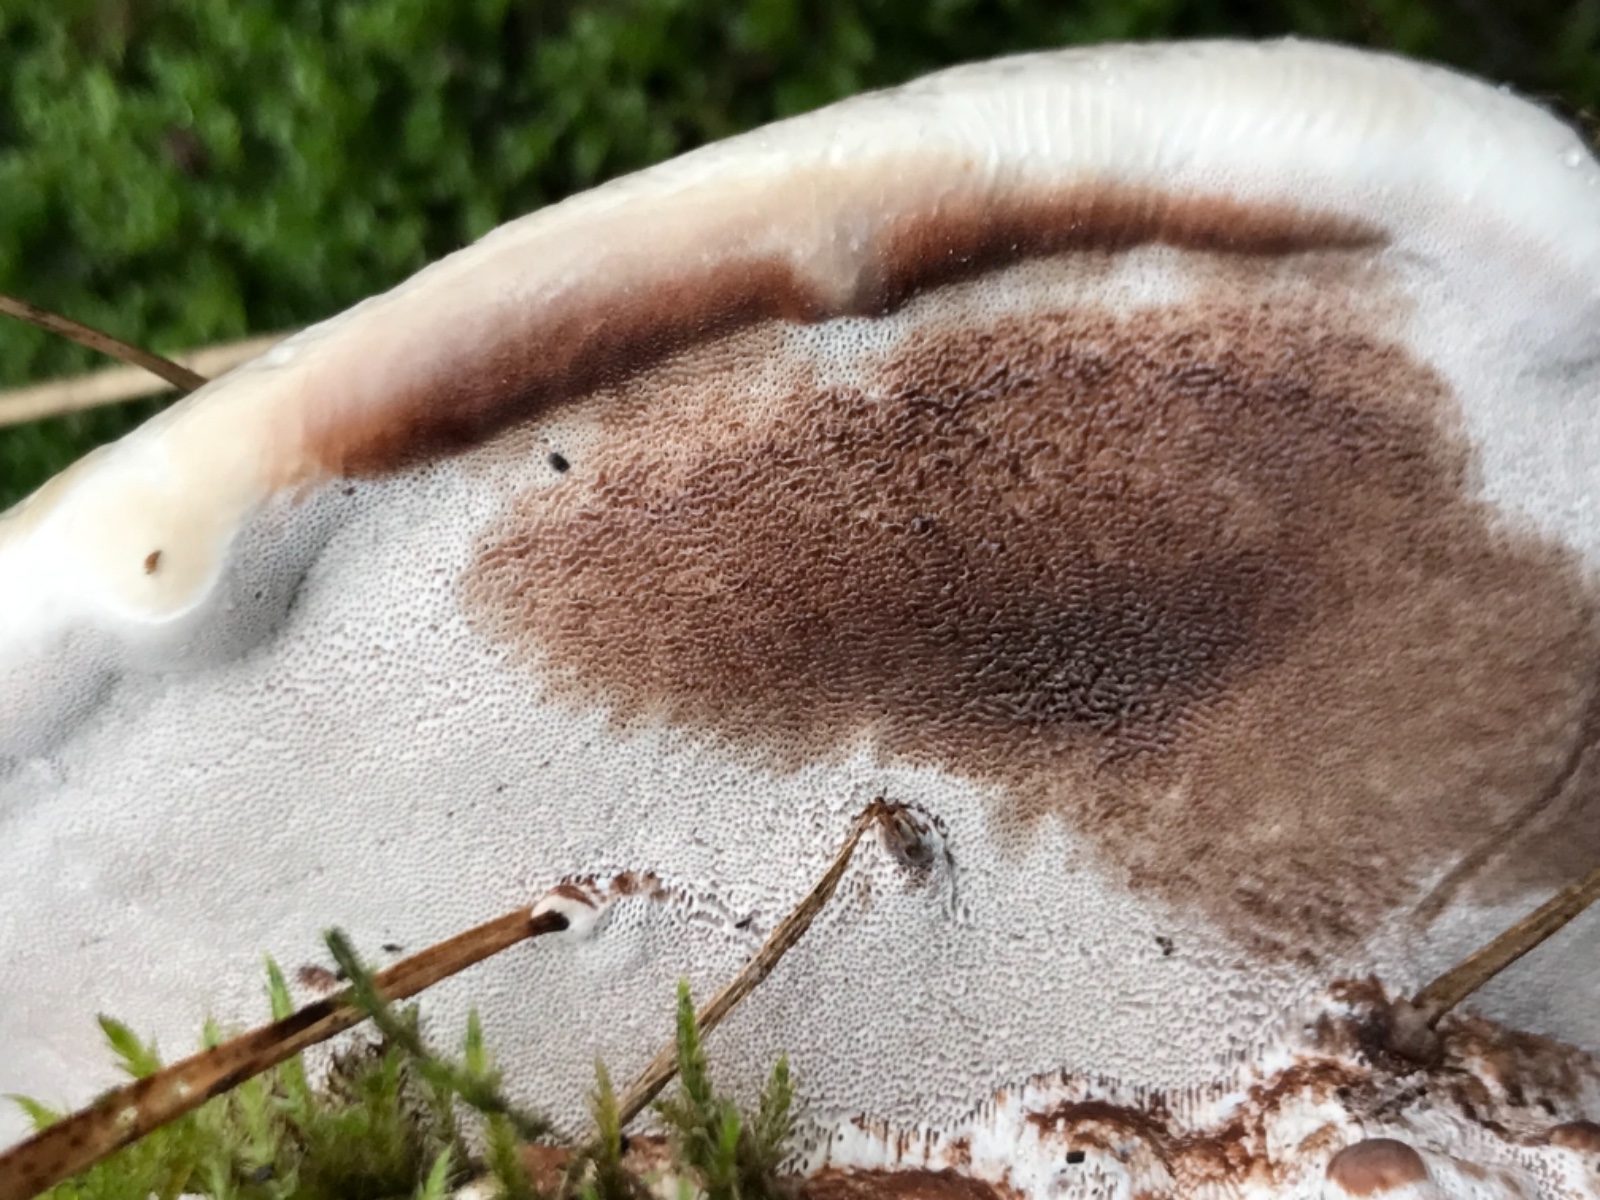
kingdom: Fungi
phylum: Basidiomycota
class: Agaricomycetes
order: Polyporales
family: Polyporaceae
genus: Ganoderma
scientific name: Ganoderma
